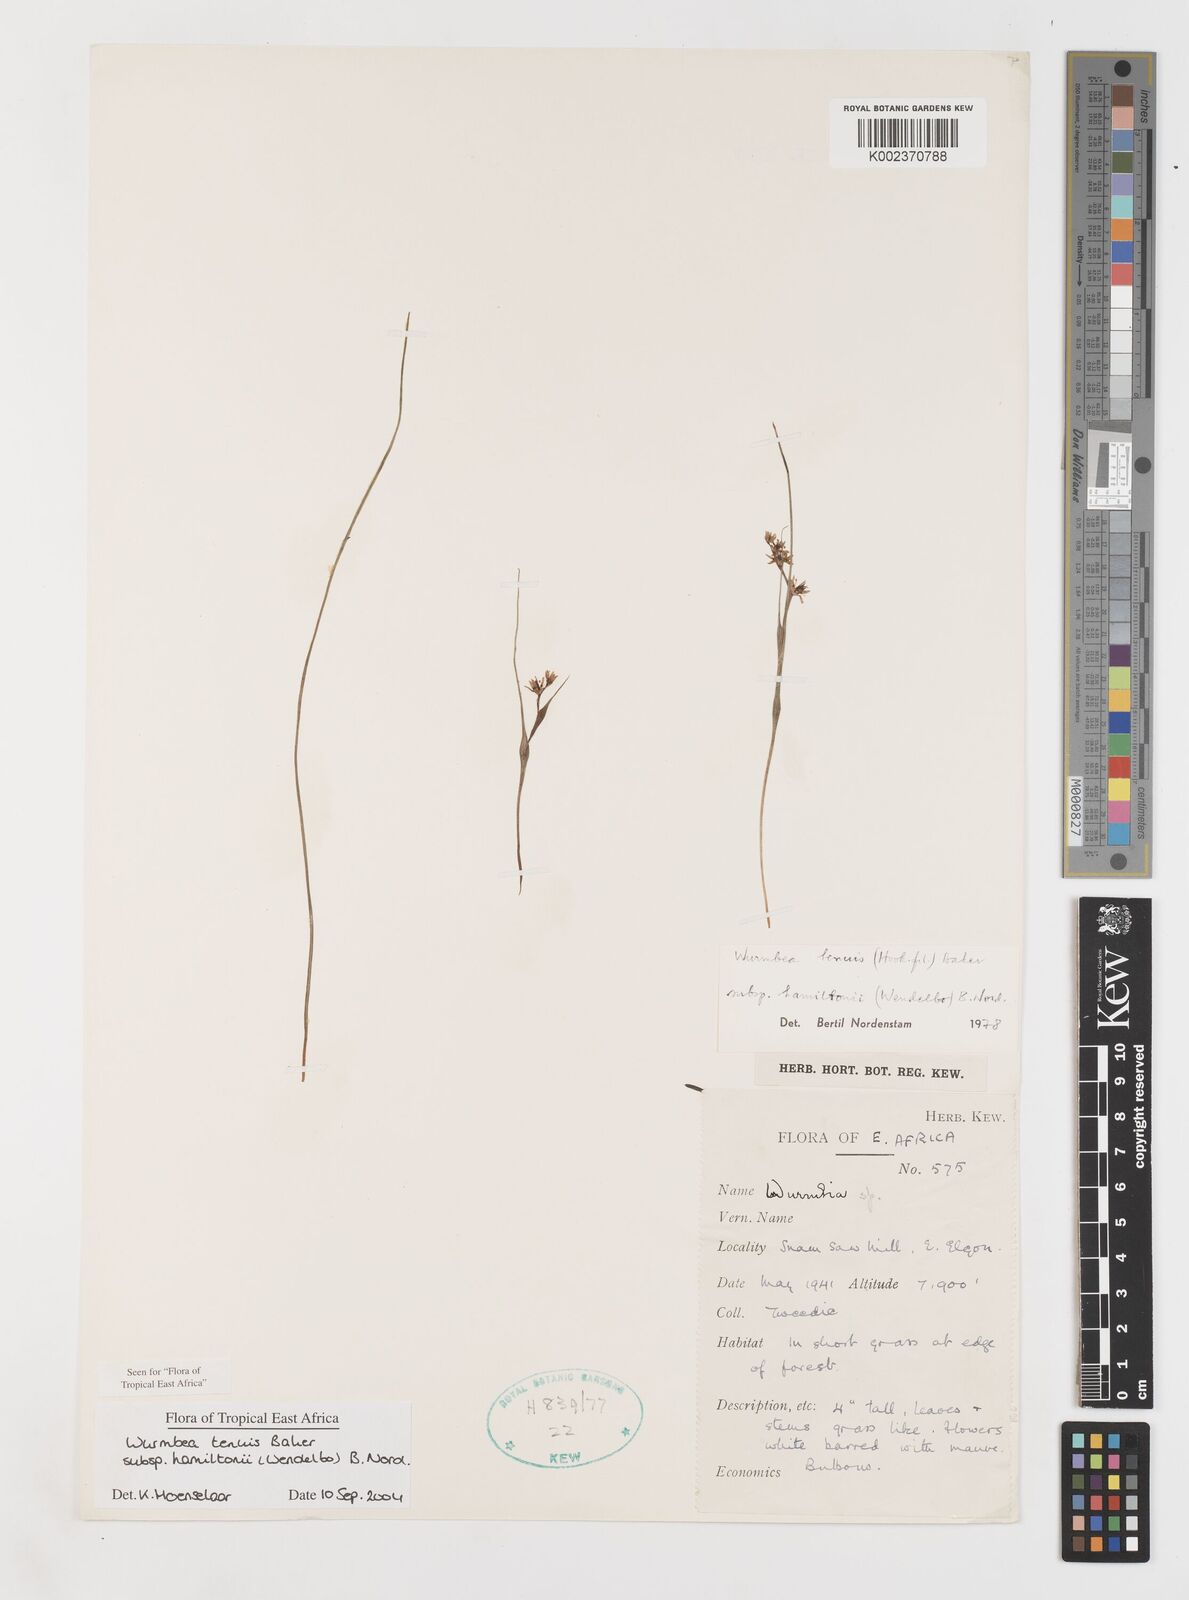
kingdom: Plantae
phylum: Tracheophyta
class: Liliopsida
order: Liliales
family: Colchicaceae
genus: Wurmbea
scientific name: Wurmbea tenuis
